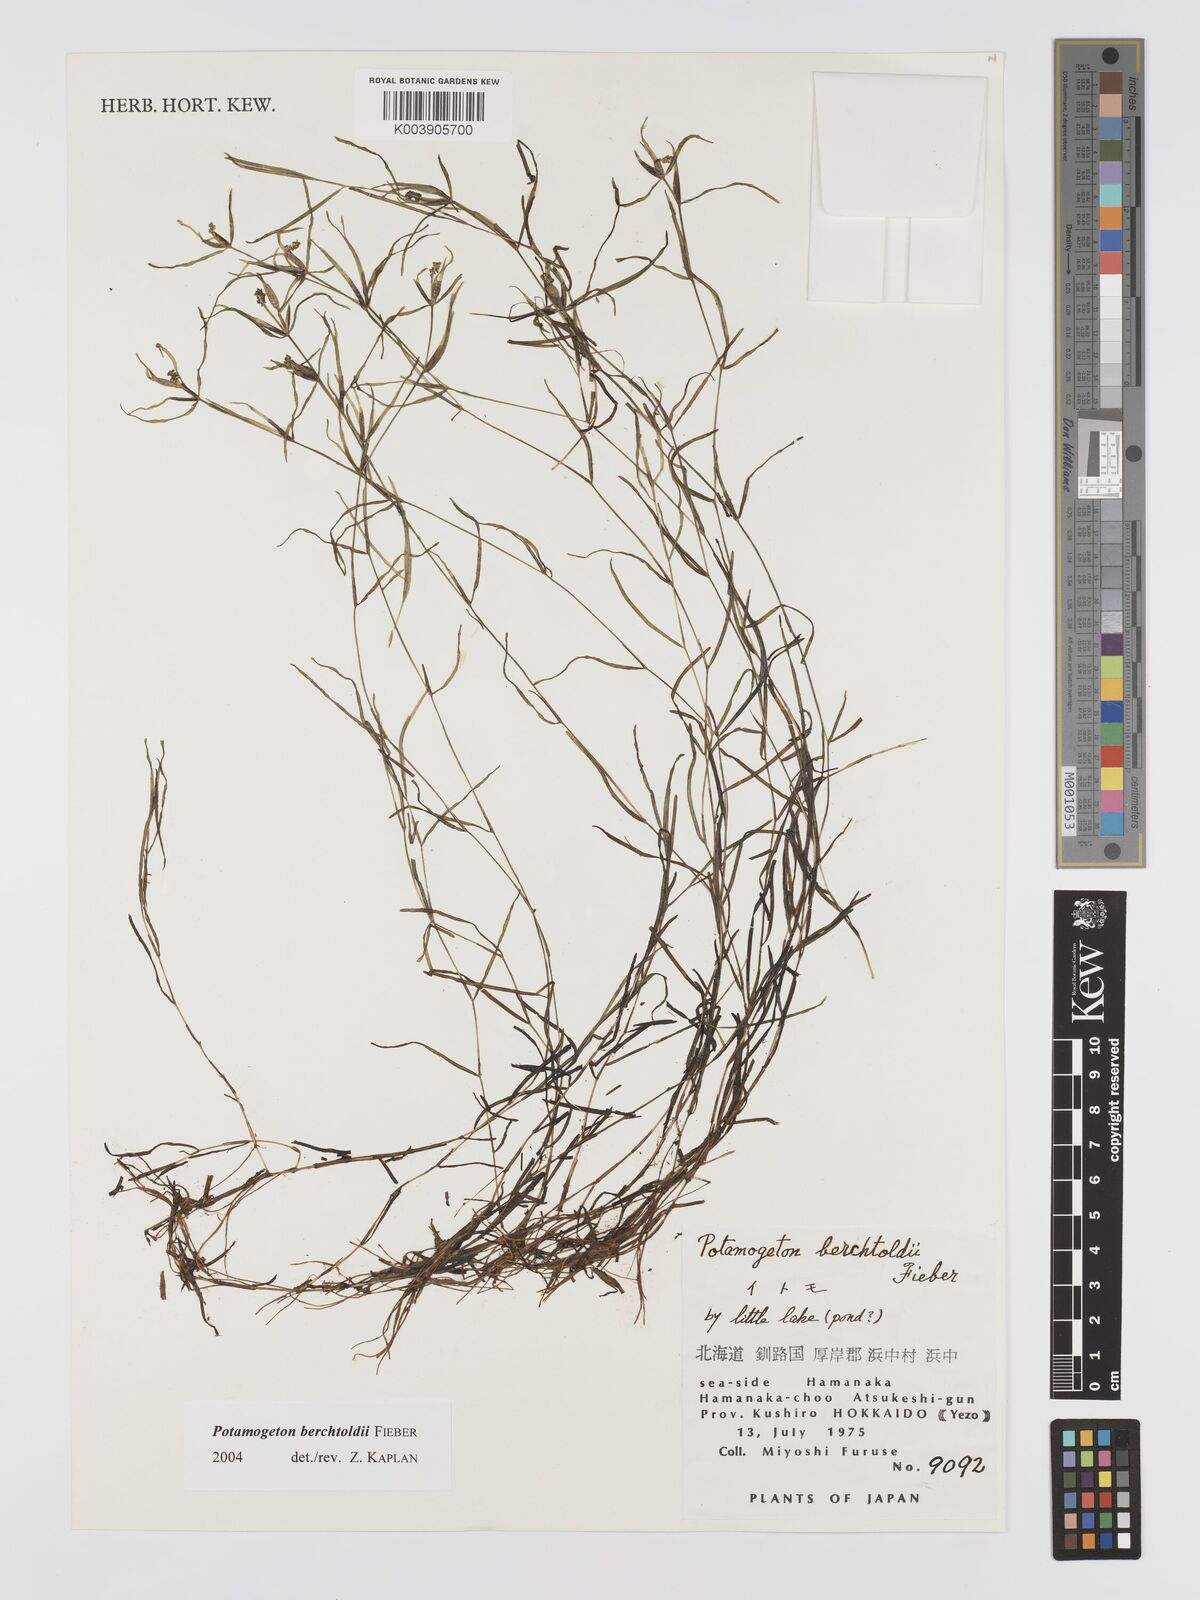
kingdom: Plantae
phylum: Tracheophyta
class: Liliopsida
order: Alismatales
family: Potamogetonaceae
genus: Potamogeton
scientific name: Potamogeton berchtoldii
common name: Small pondweed
